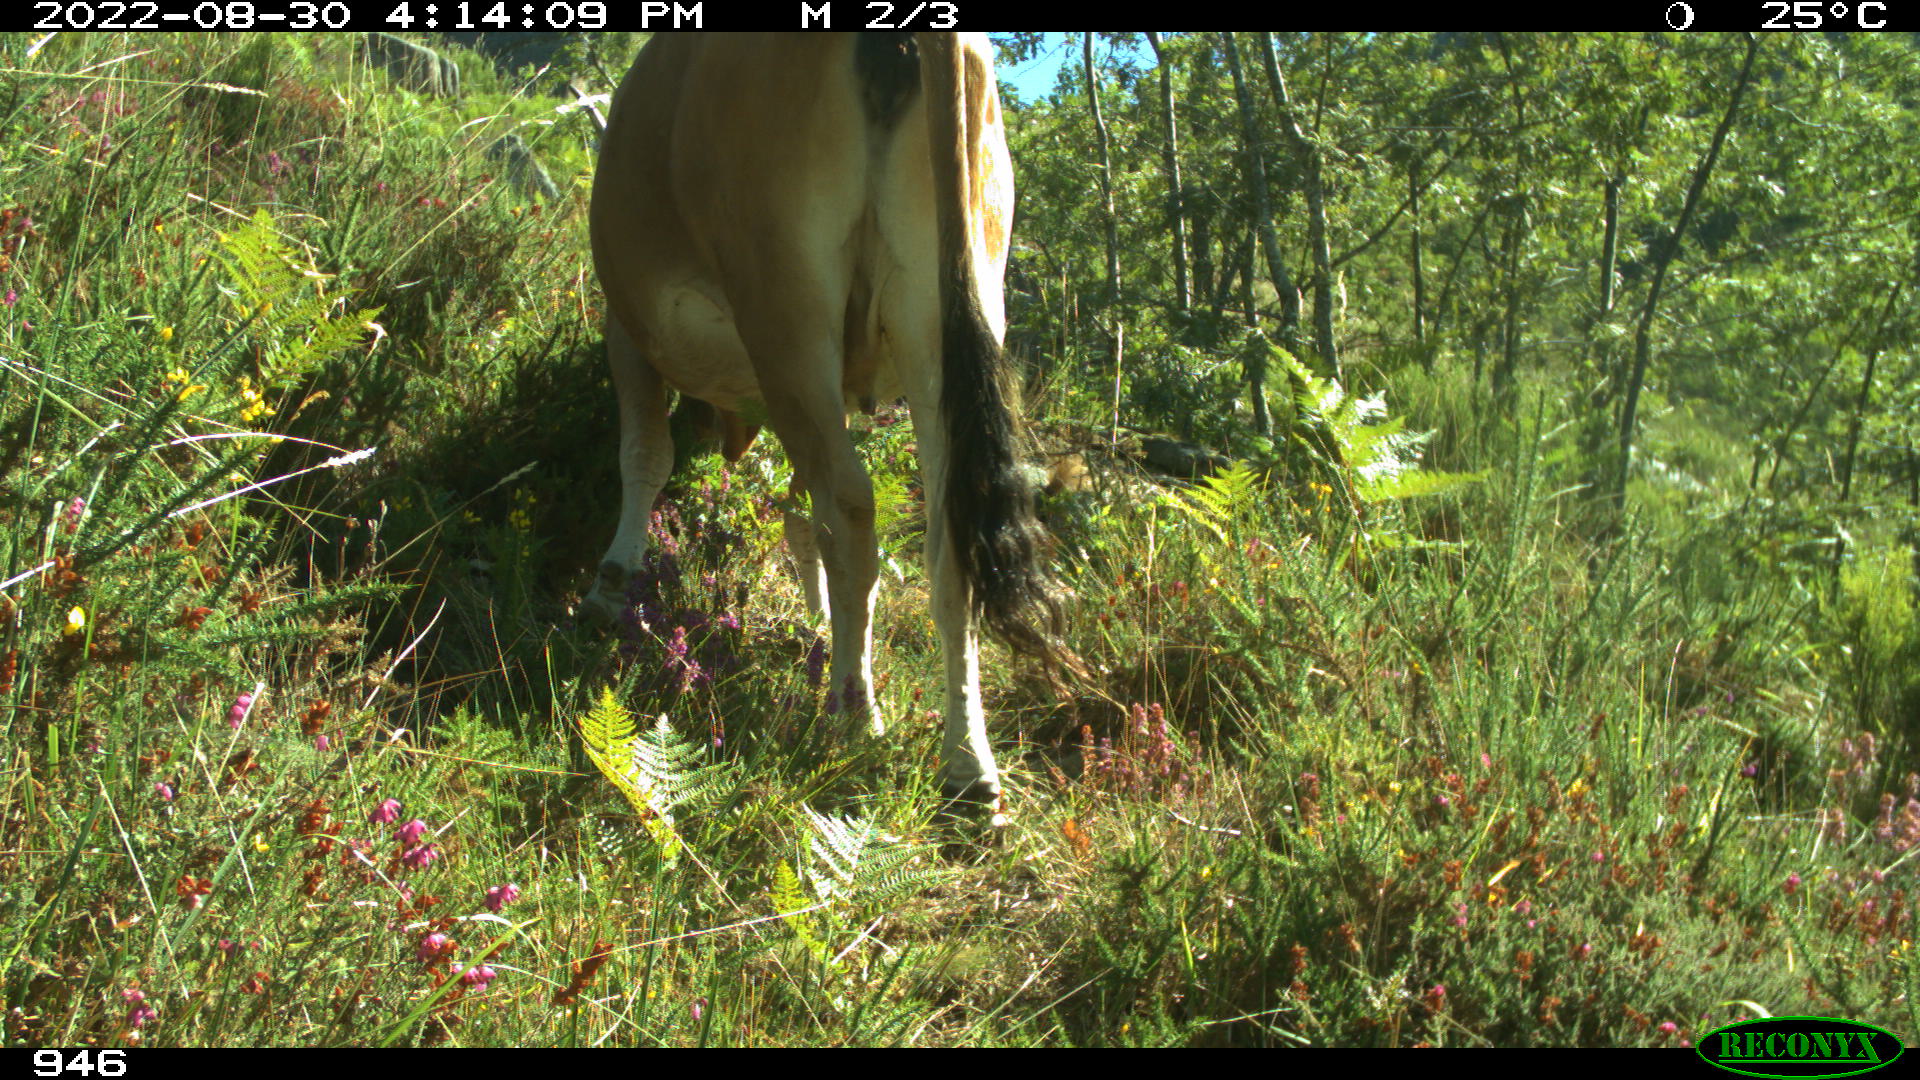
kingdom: Animalia
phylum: Chordata
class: Mammalia
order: Artiodactyla
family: Bovidae
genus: Bos
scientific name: Bos taurus
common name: Domesticated cattle
